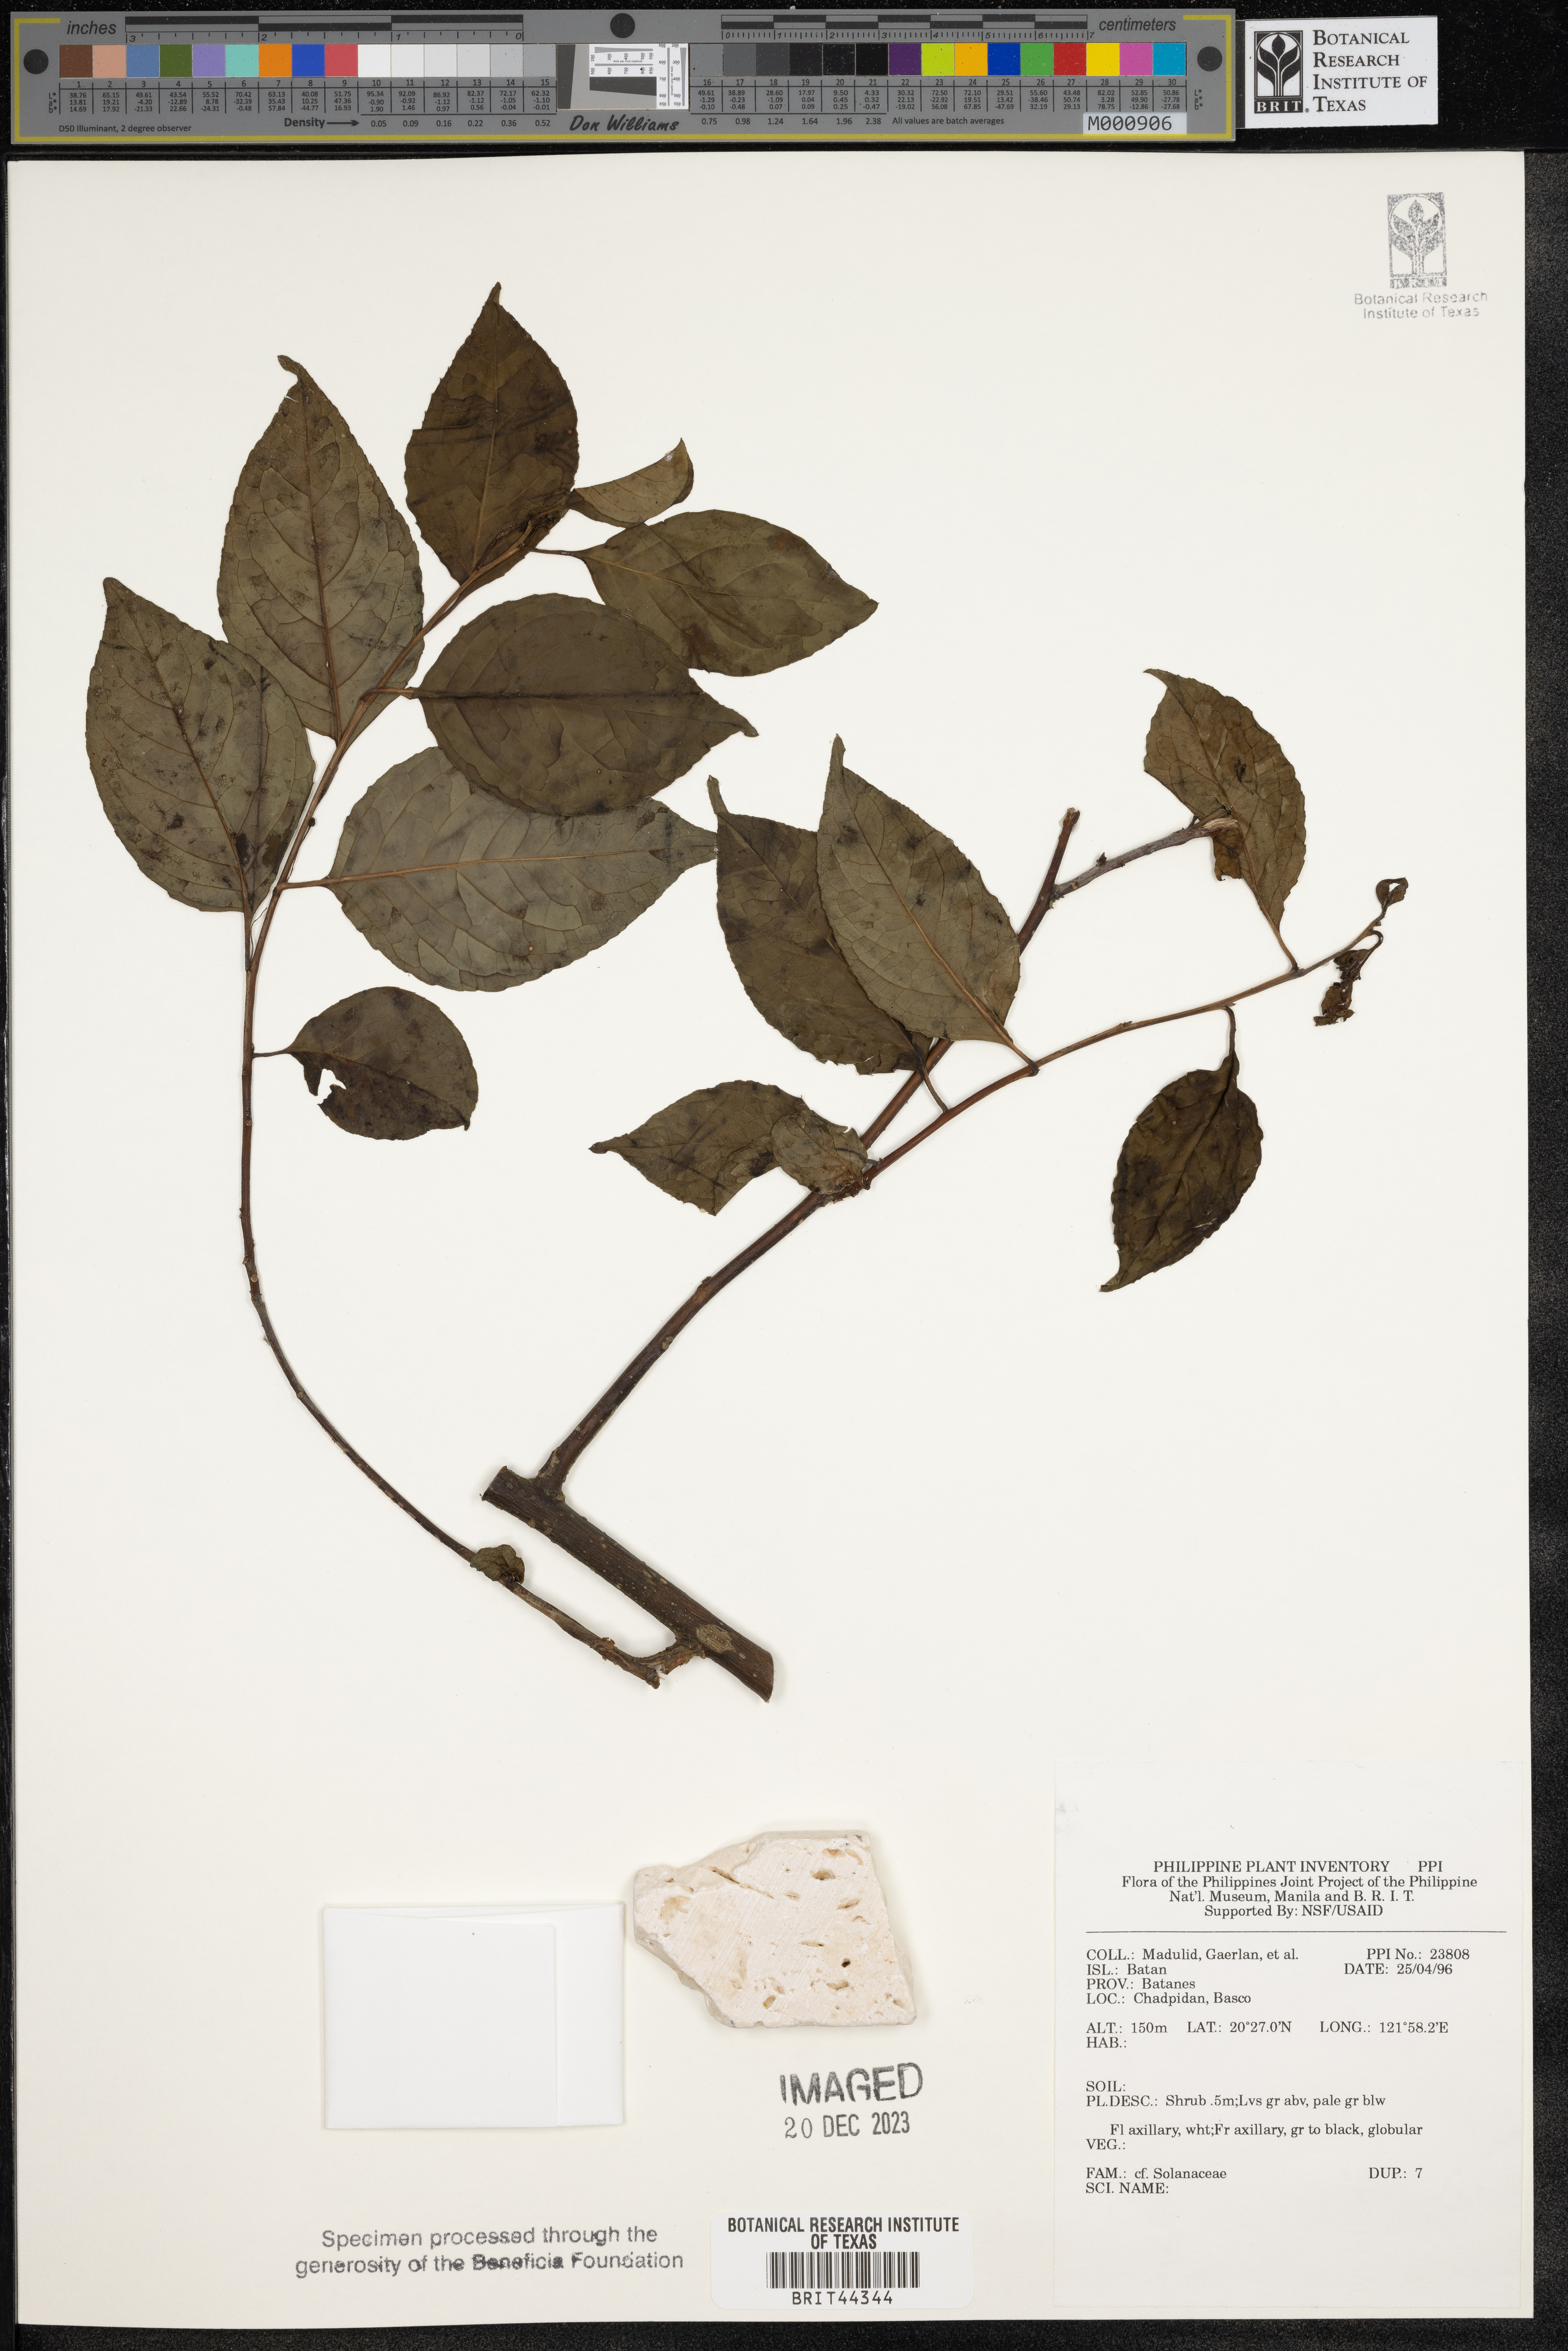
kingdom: Plantae
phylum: Tracheophyta
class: Magnoliopsida
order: Solanales
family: Solanaceae
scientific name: Solanaceae
